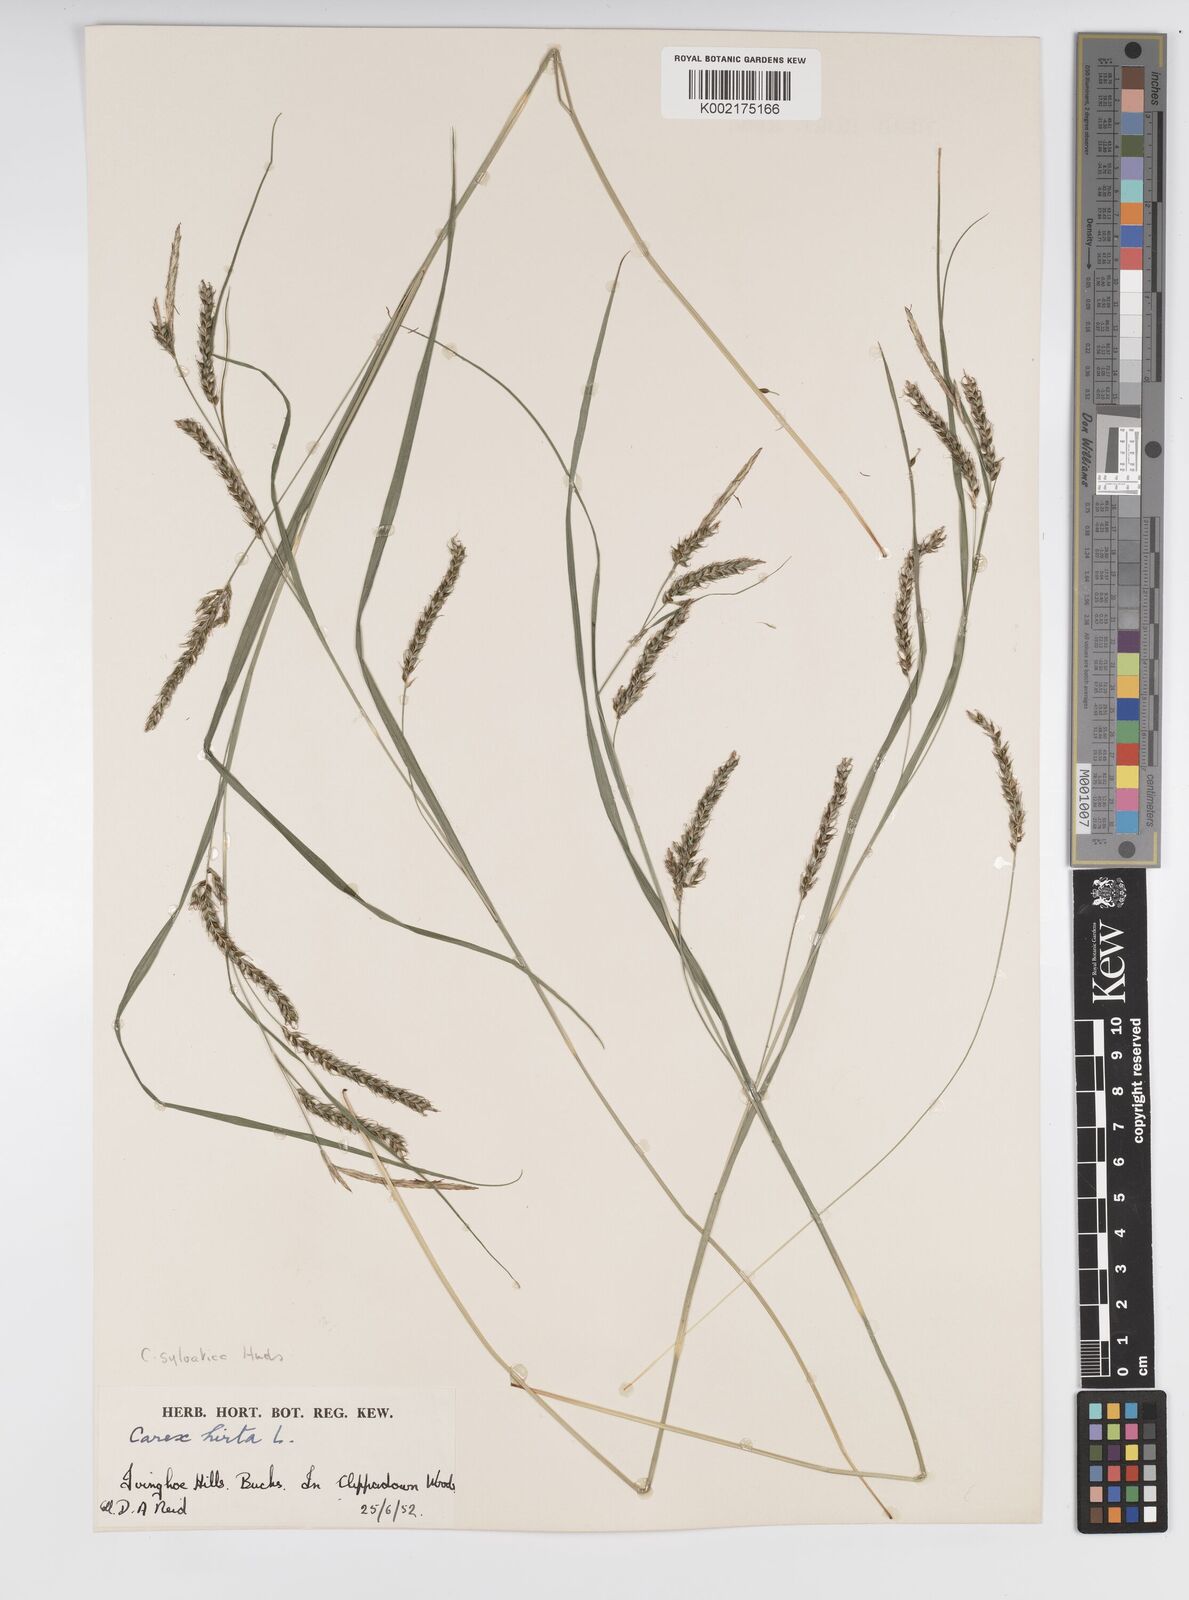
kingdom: Plantae
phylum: Tracheophyta
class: Liliopsida
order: Poales
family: Cyperaceae
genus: Carex
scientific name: Carex sylvatica
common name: Wood-sedge
